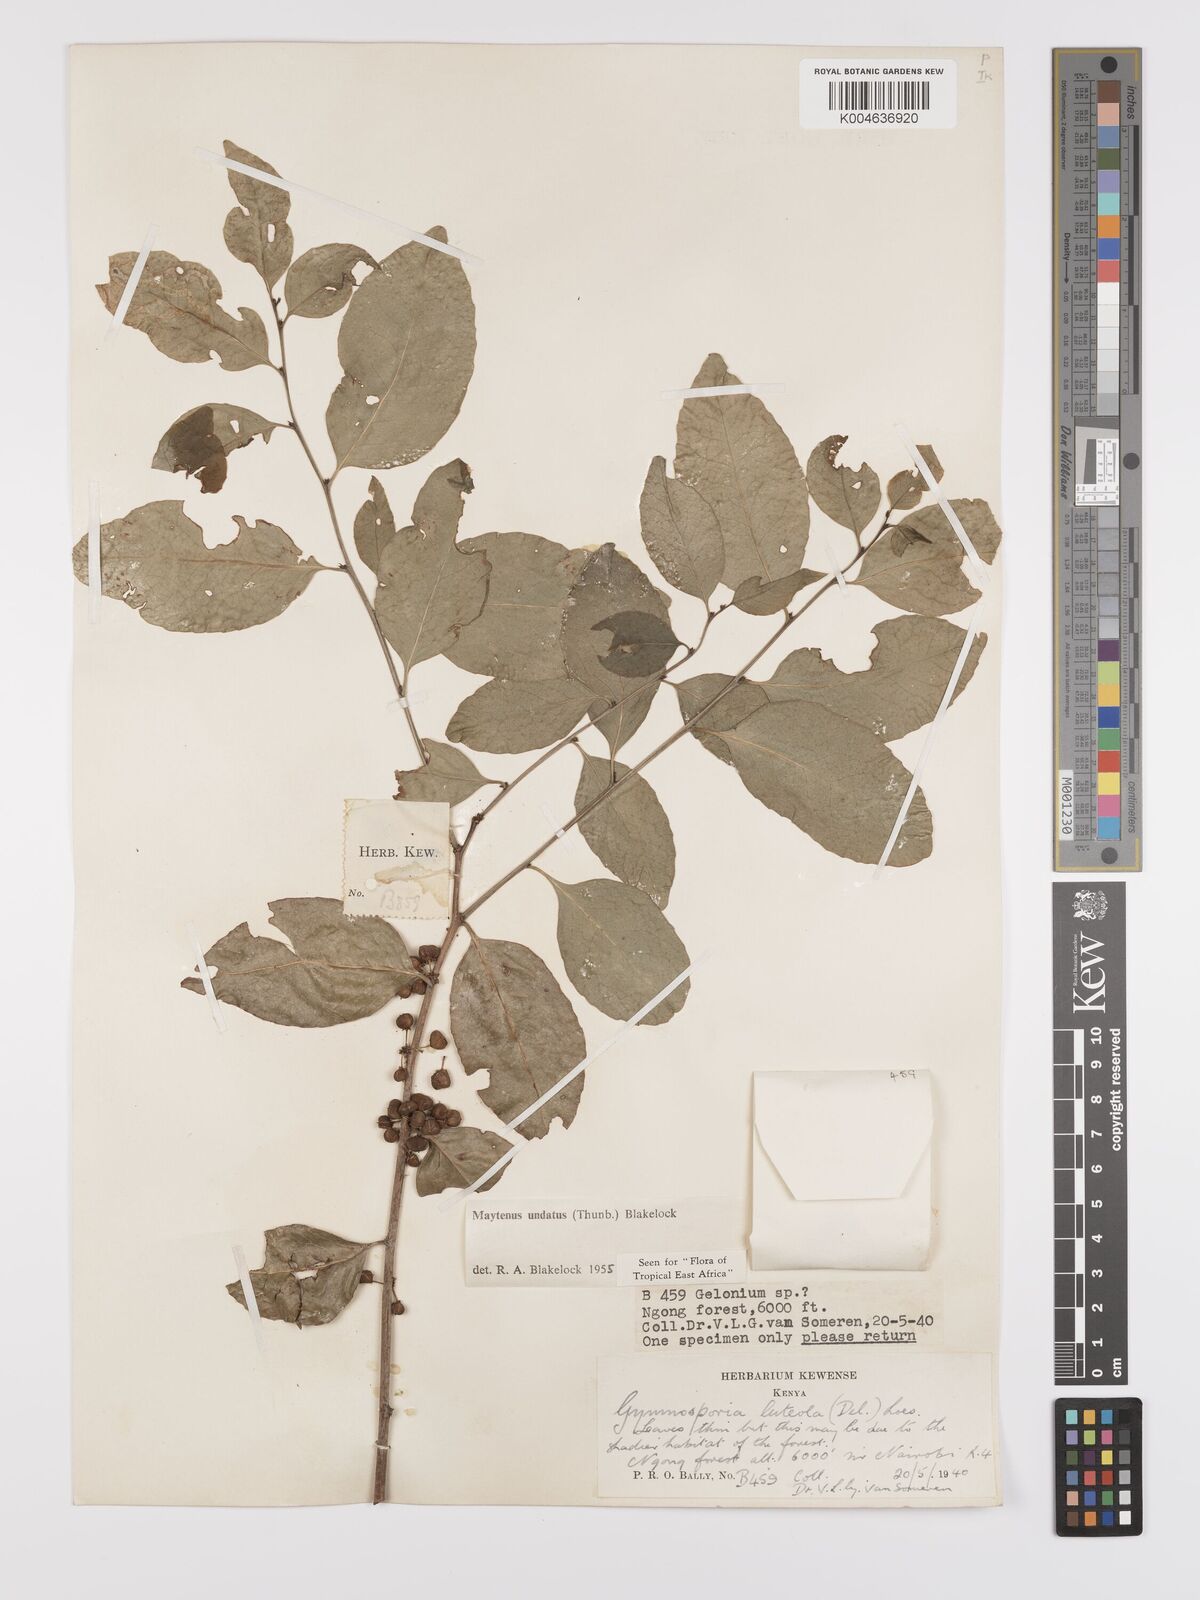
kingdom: Plantae
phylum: Tracheophyta
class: Magnoliopsida
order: Celastrales
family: Celastraceae
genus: Gymnosporia
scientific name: Gymnosporia undata
